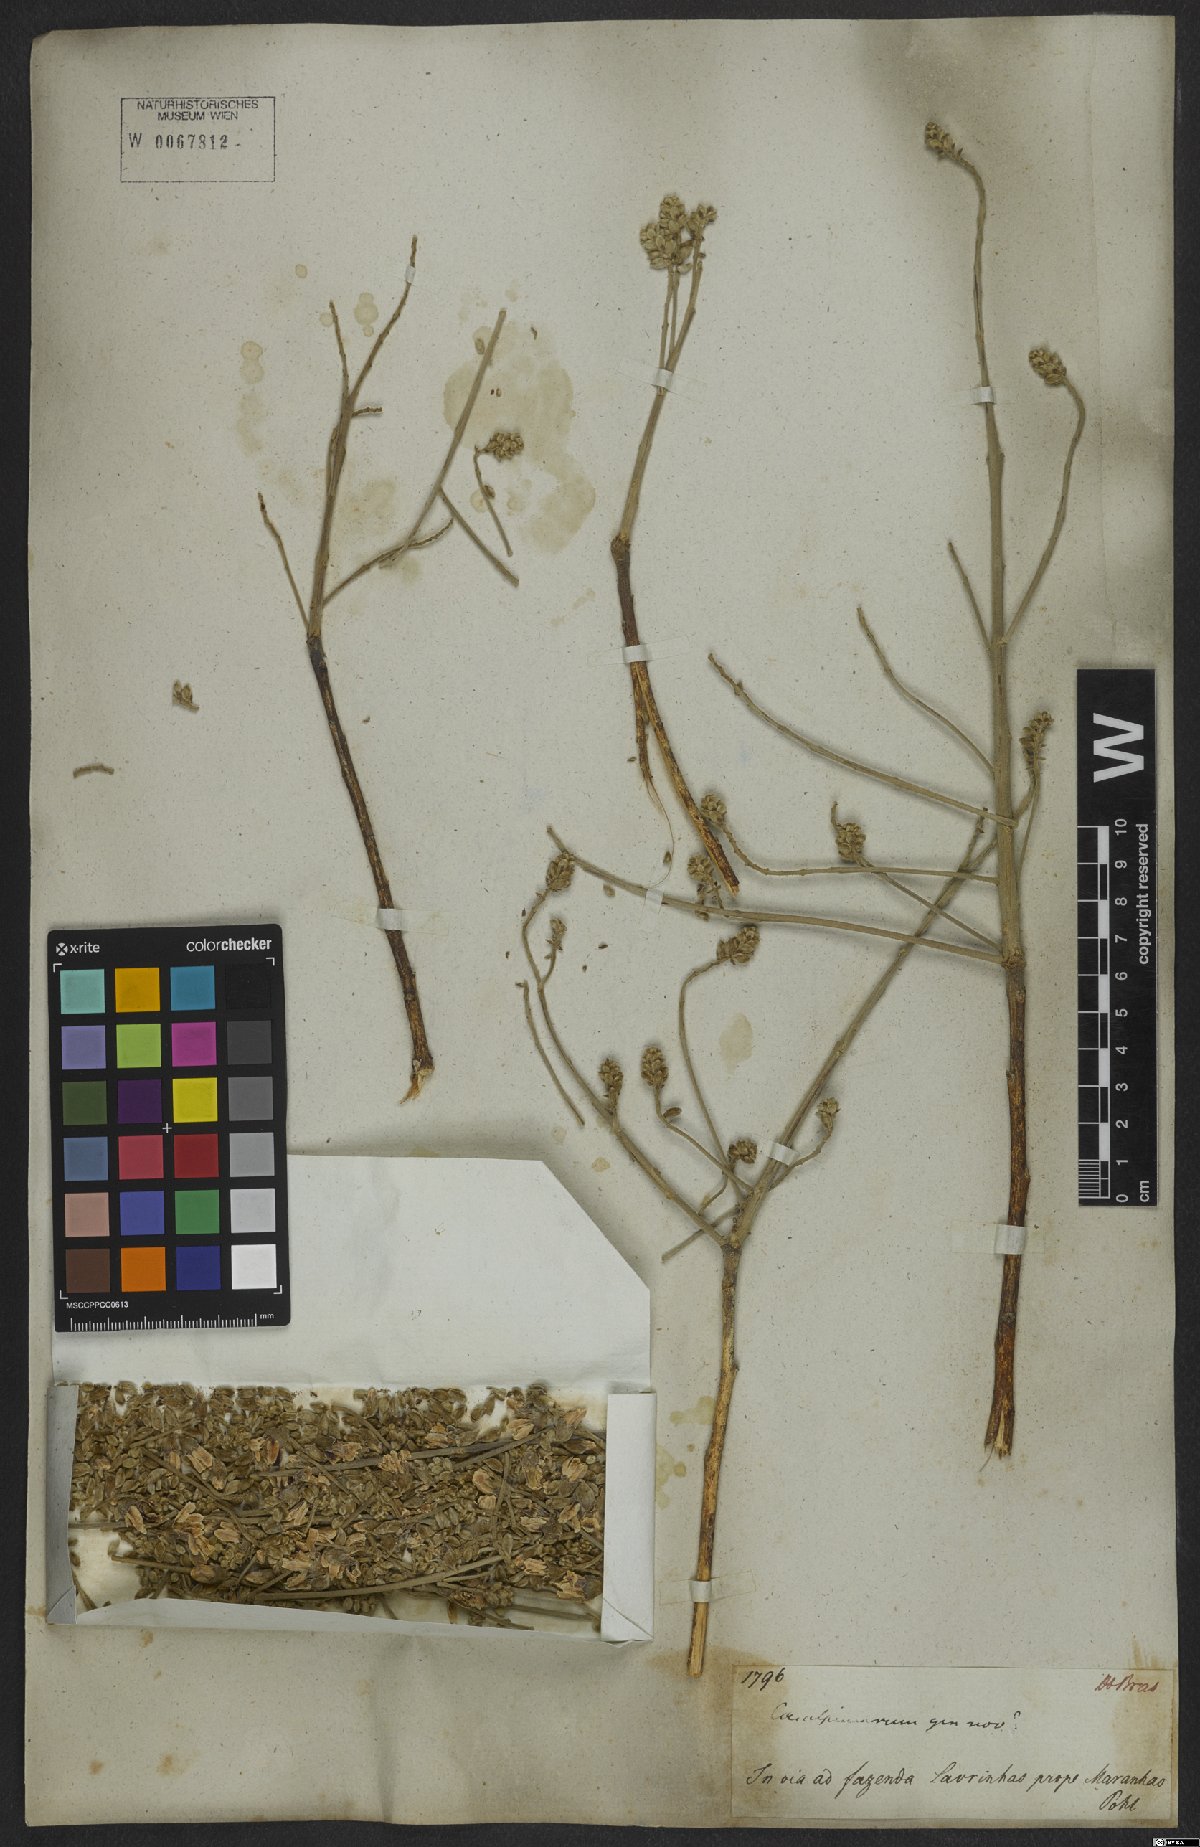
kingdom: Plantae
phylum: Tracheophyta
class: Magnoliopsida
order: Fabales
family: Fabaceae
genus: Ormosia
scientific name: Ormosia
